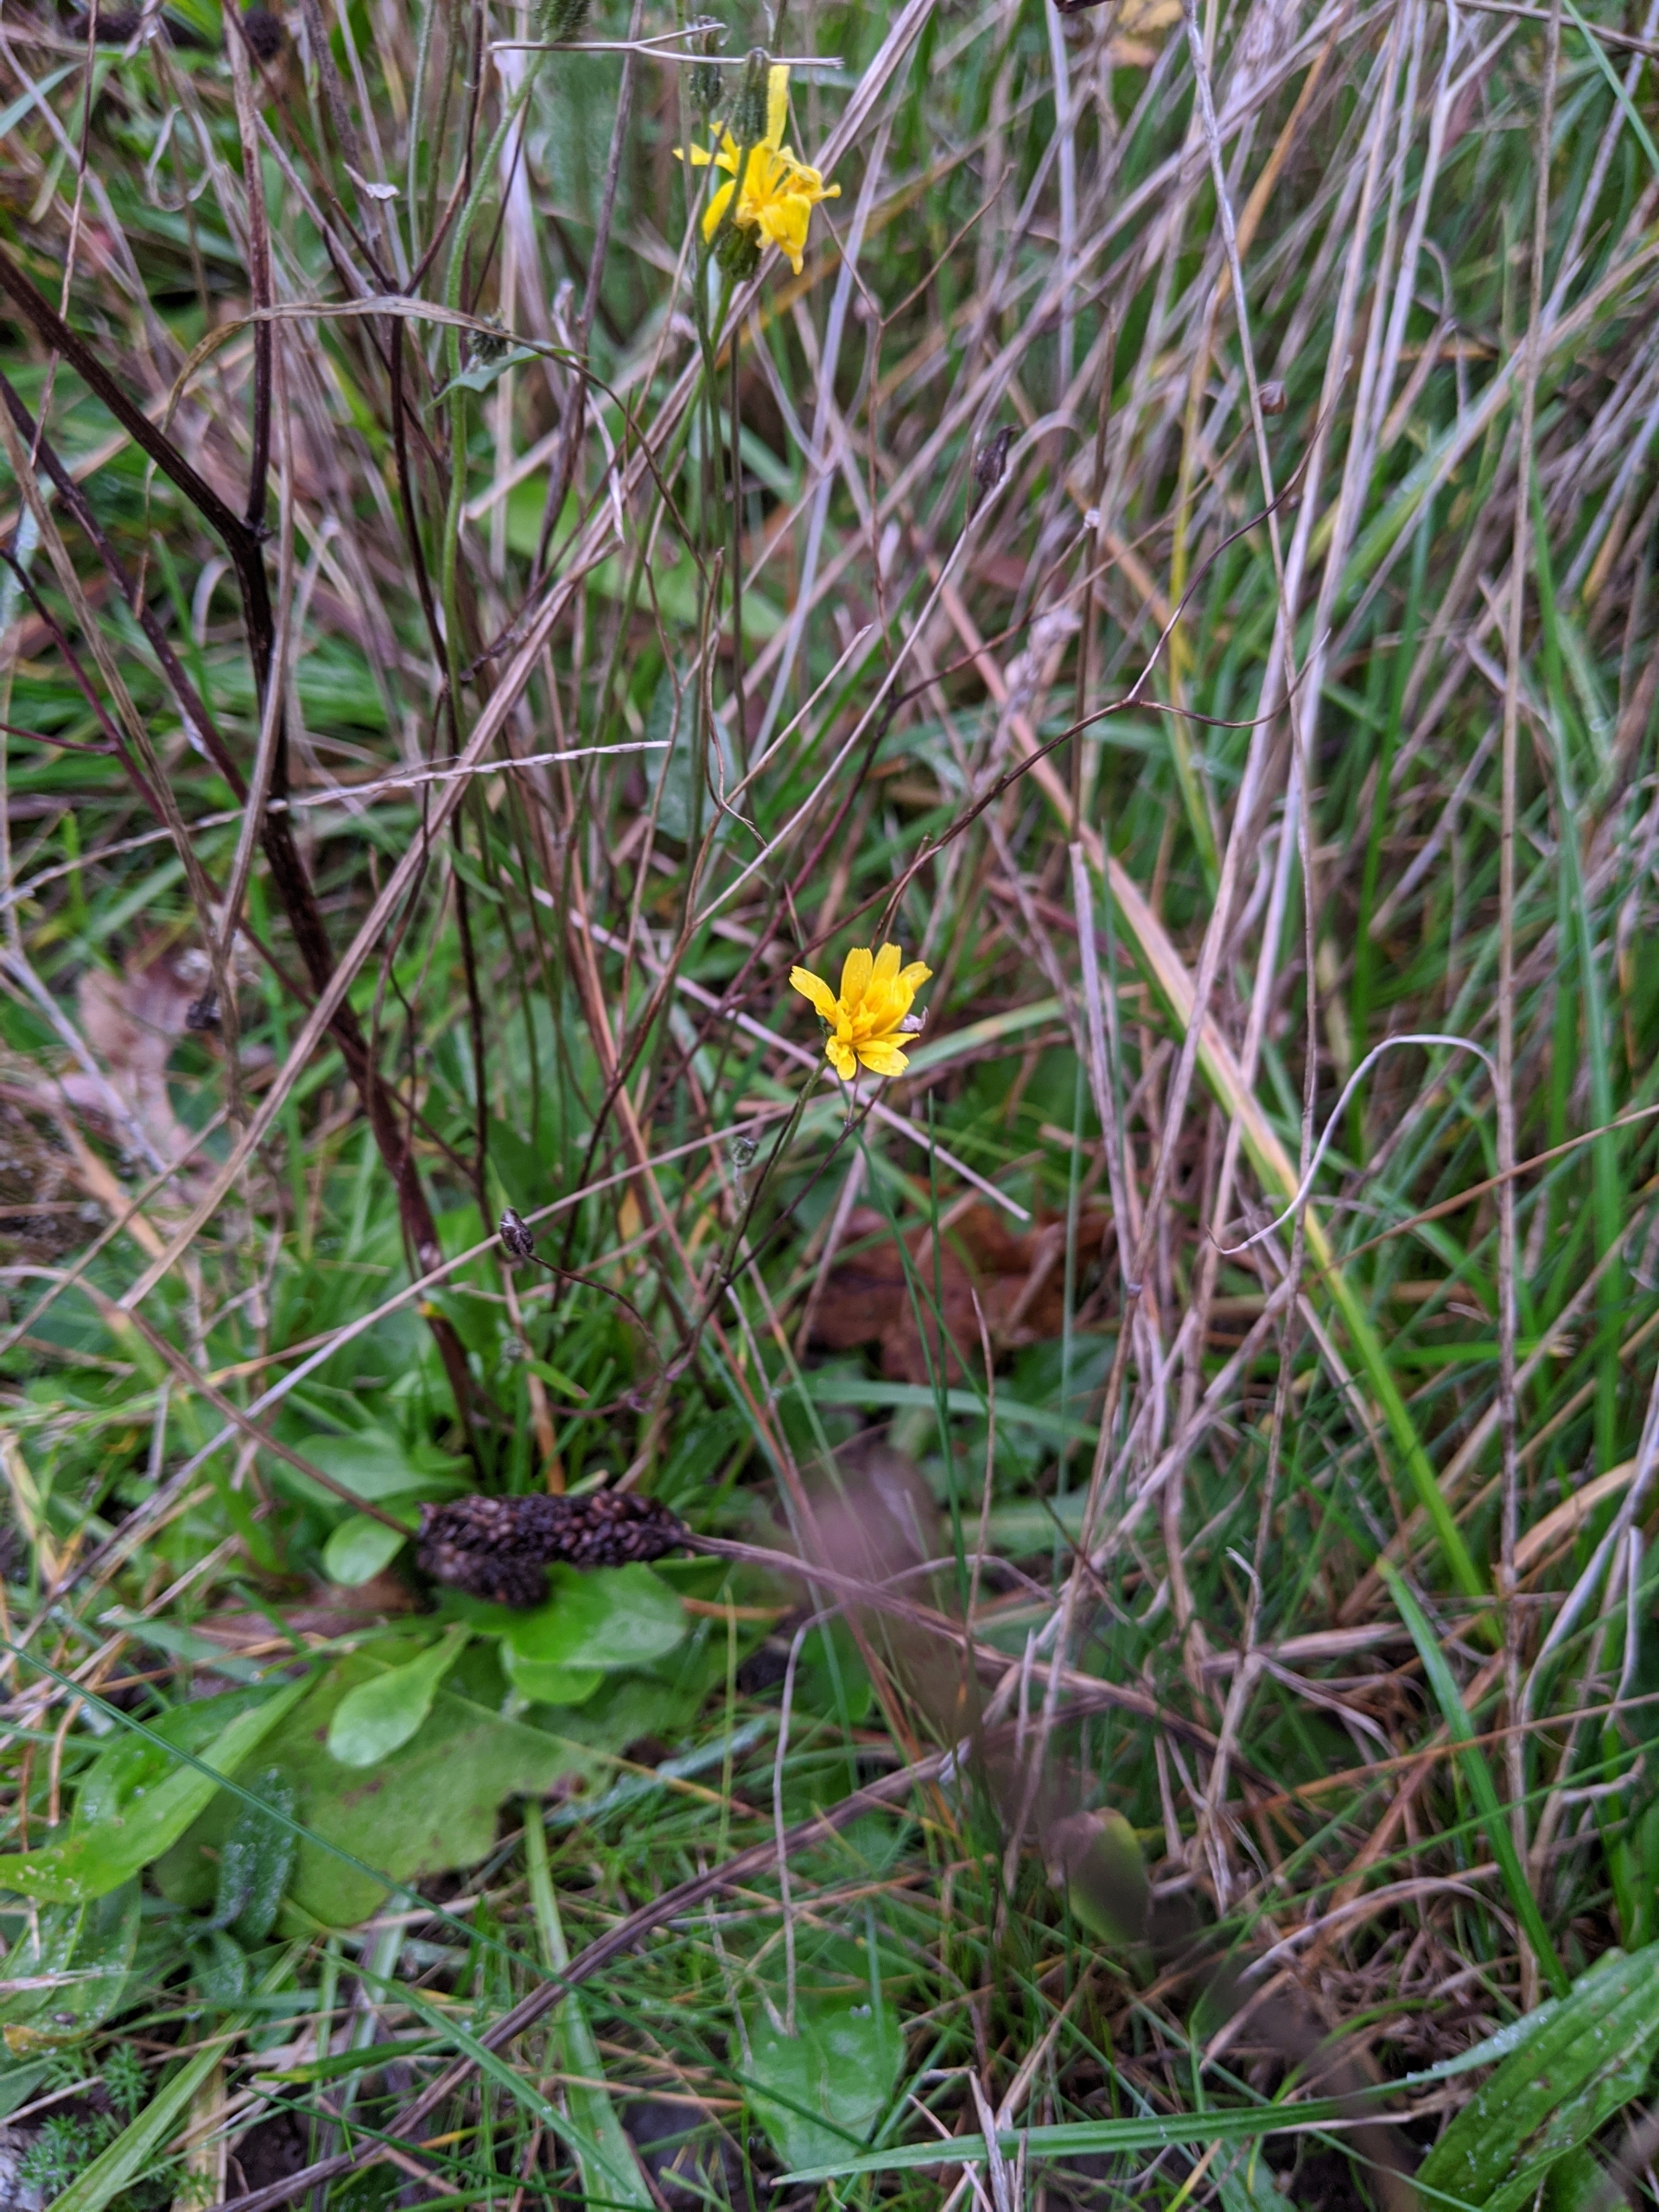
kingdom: Plantae
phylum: Tracheophyta
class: Magnoliopsida
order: Asterales
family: Asteraceae
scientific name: Asteraceae
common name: Kurvblomstfamilien
